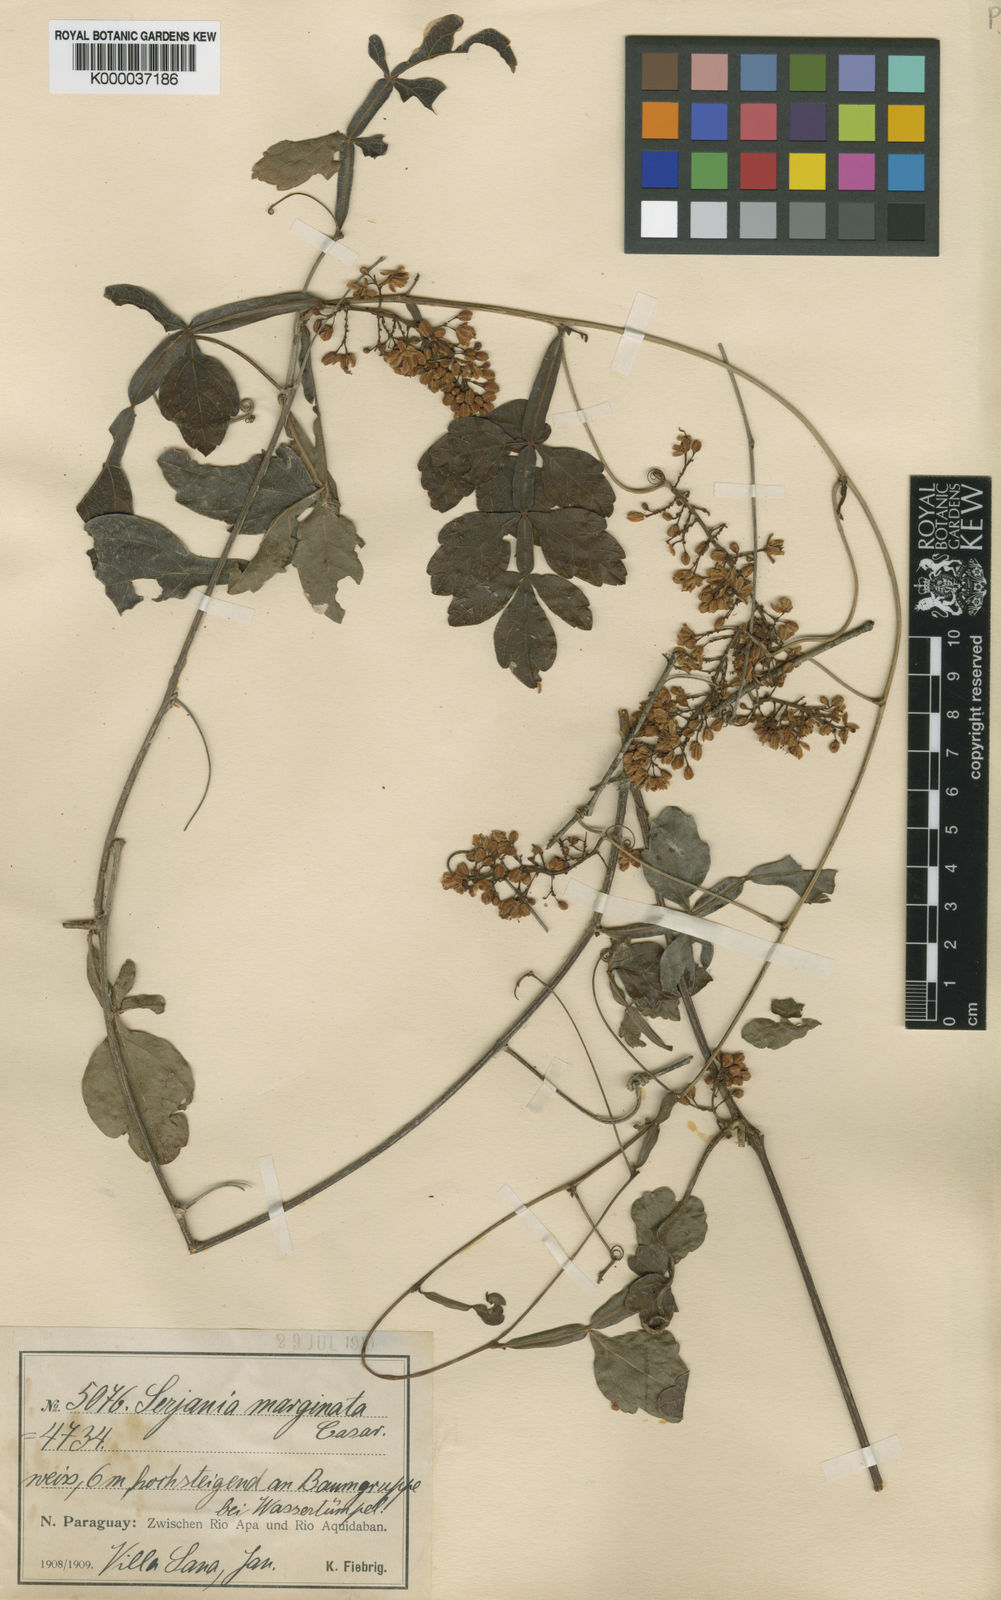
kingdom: Plantae
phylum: Tracheophyta
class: Magnoliopsida
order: Sapindales
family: Sapindaceae
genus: Serjania
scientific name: Serjania marginata
